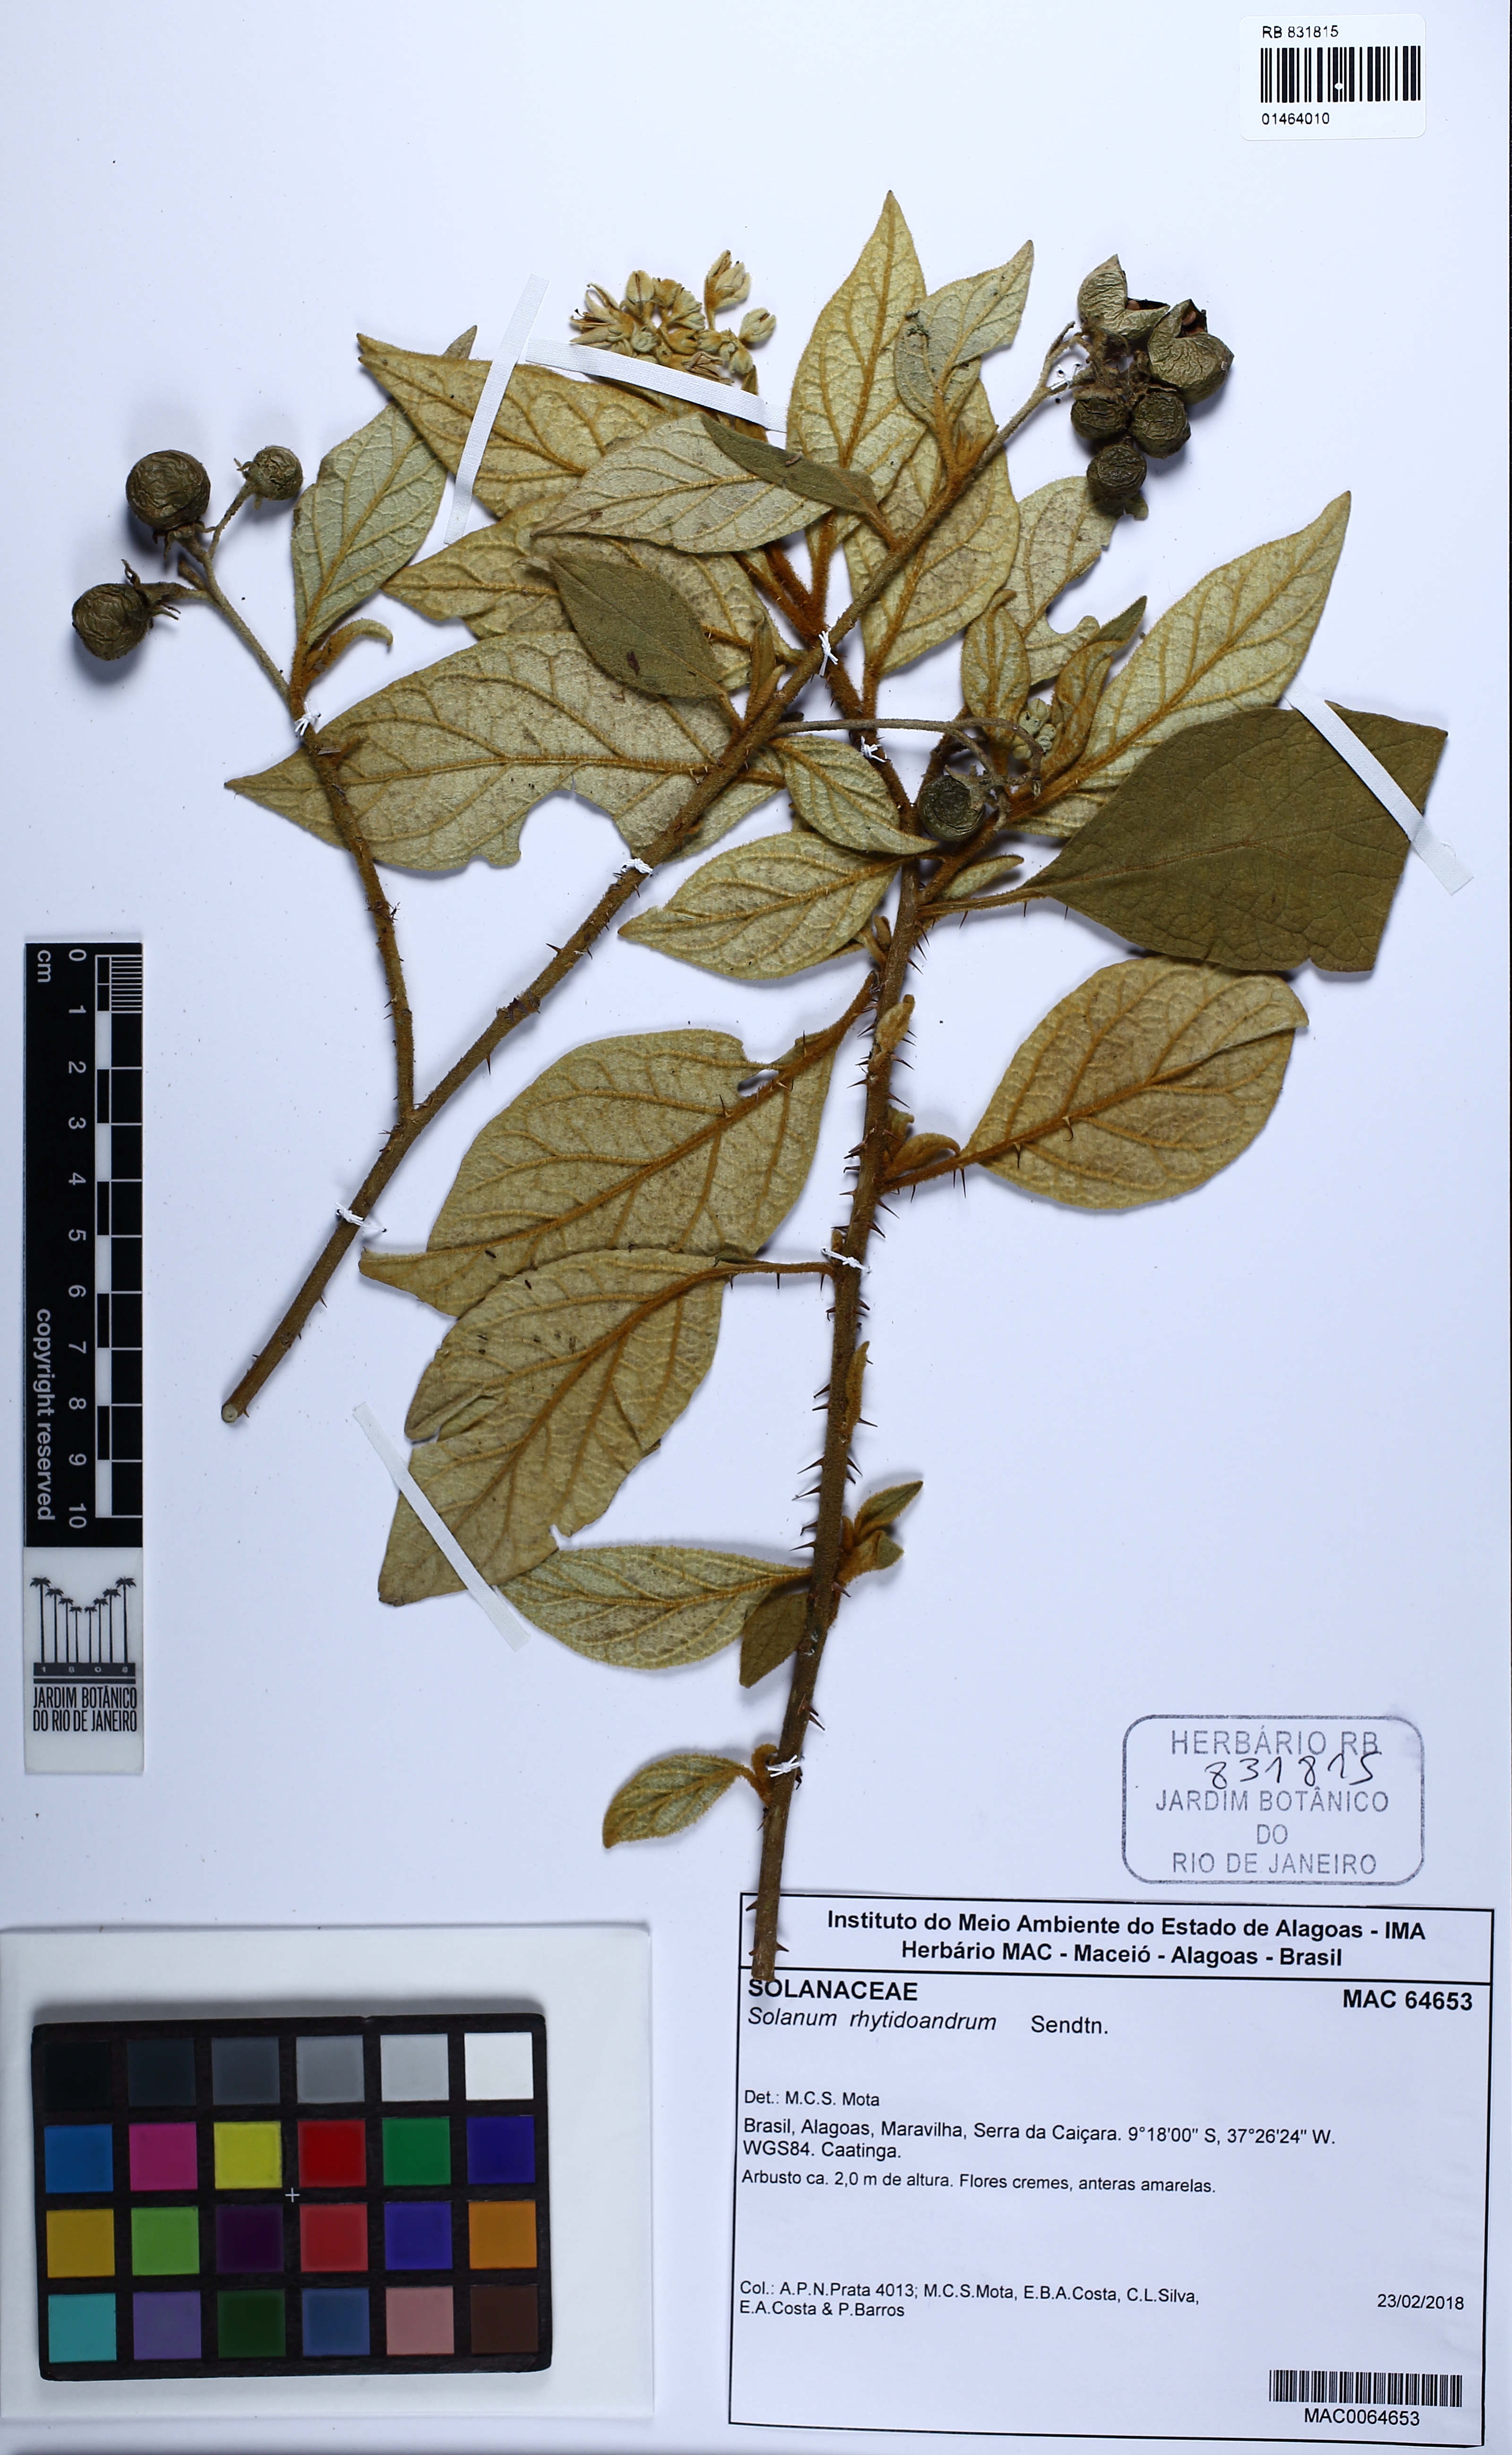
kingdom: Plantae
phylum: Tracheophyta
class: Magnoliopsida
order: Solanales
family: Solanaceae
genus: Solanum
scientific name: Solanum rhytidoandrum
